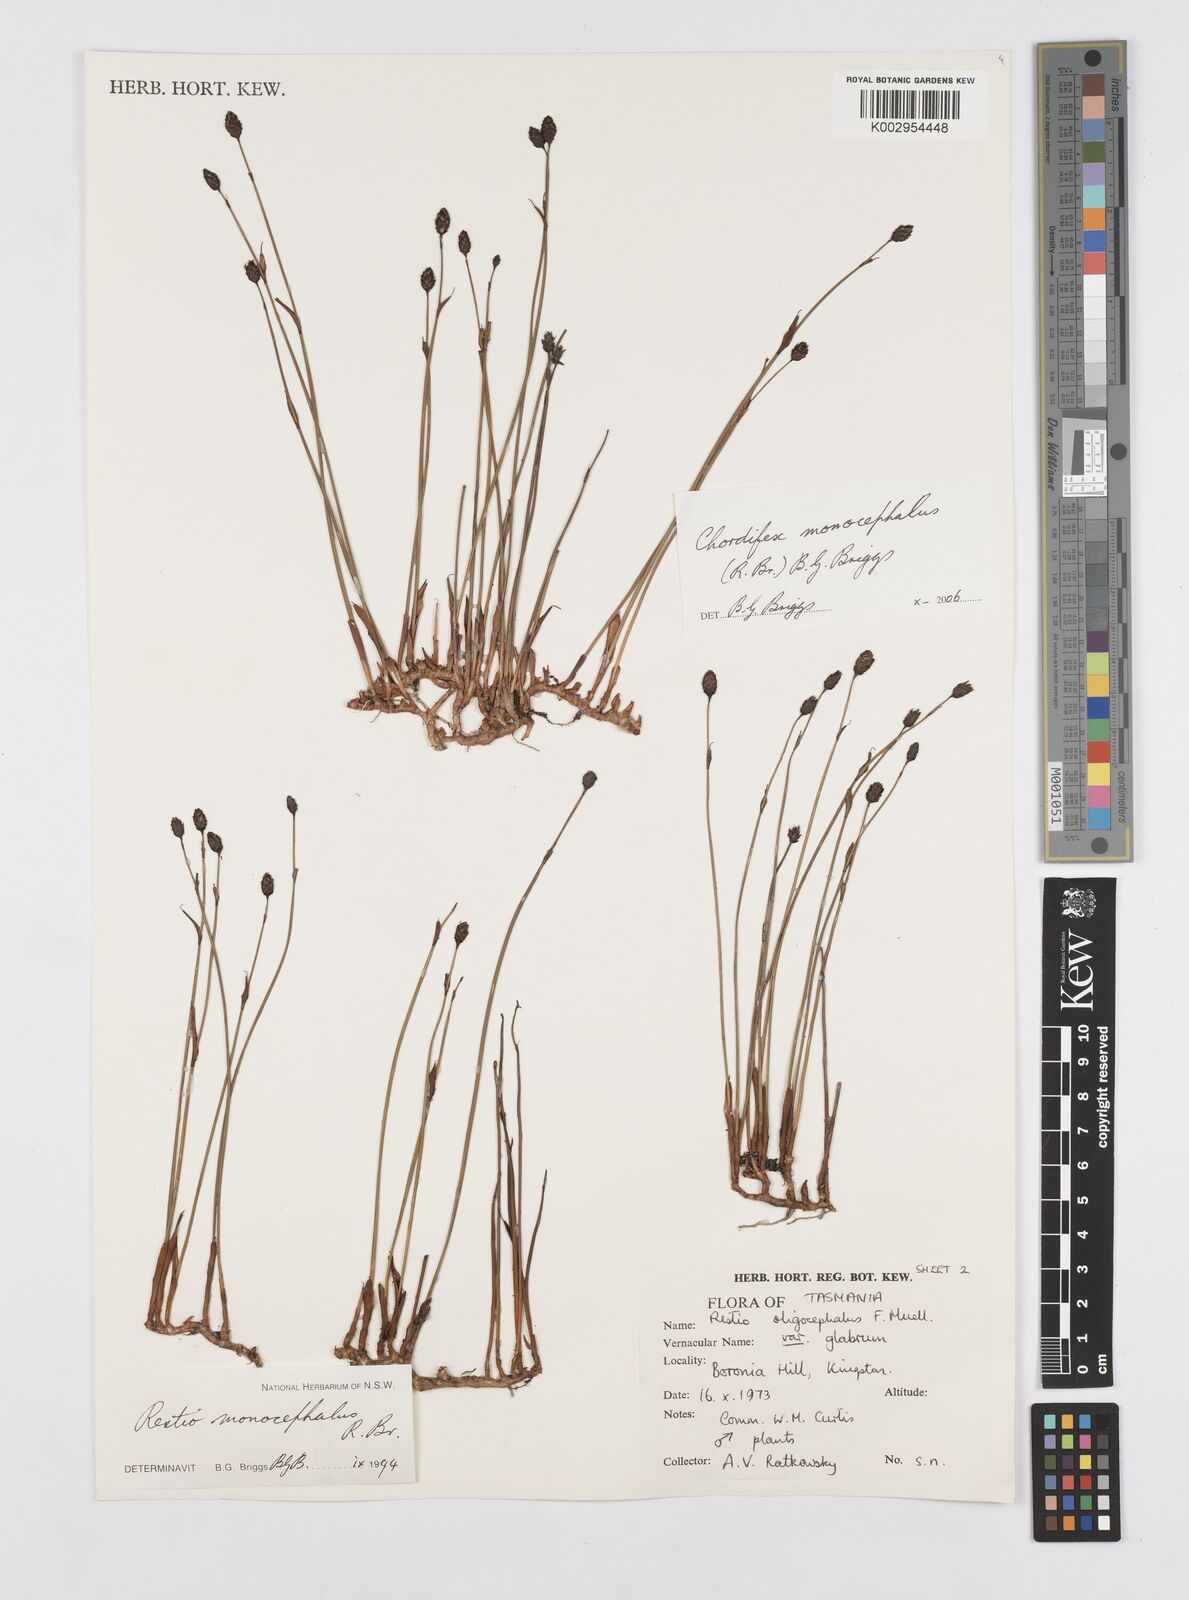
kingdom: Plantae
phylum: Tracheophyta
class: Liliopsida
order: Poales
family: Restionaceae
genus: Chordifex
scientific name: Chordifex monocephalus
